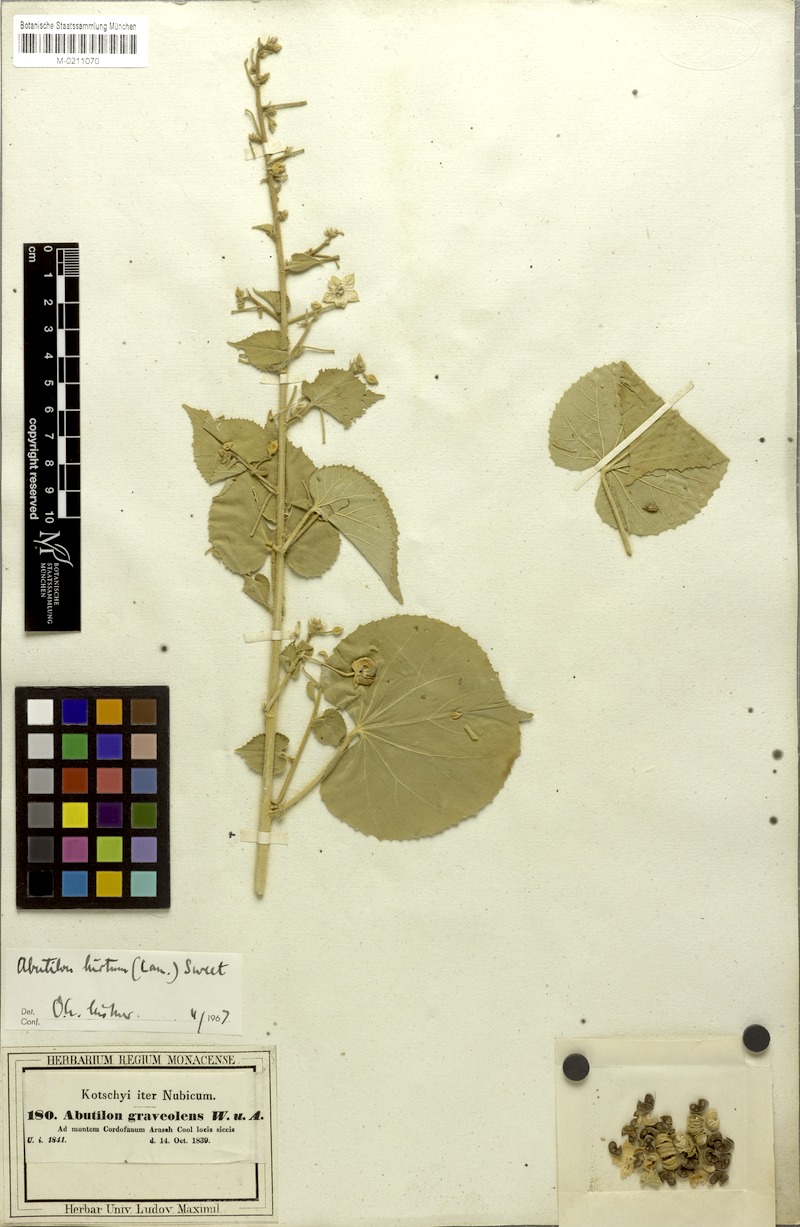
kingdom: Plantae
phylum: Tracheophyta
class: Magnoliopsida
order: Malvales
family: Malvaceae
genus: Abutilon
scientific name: Abutilon hirtum
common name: Florida keys indian mallow
